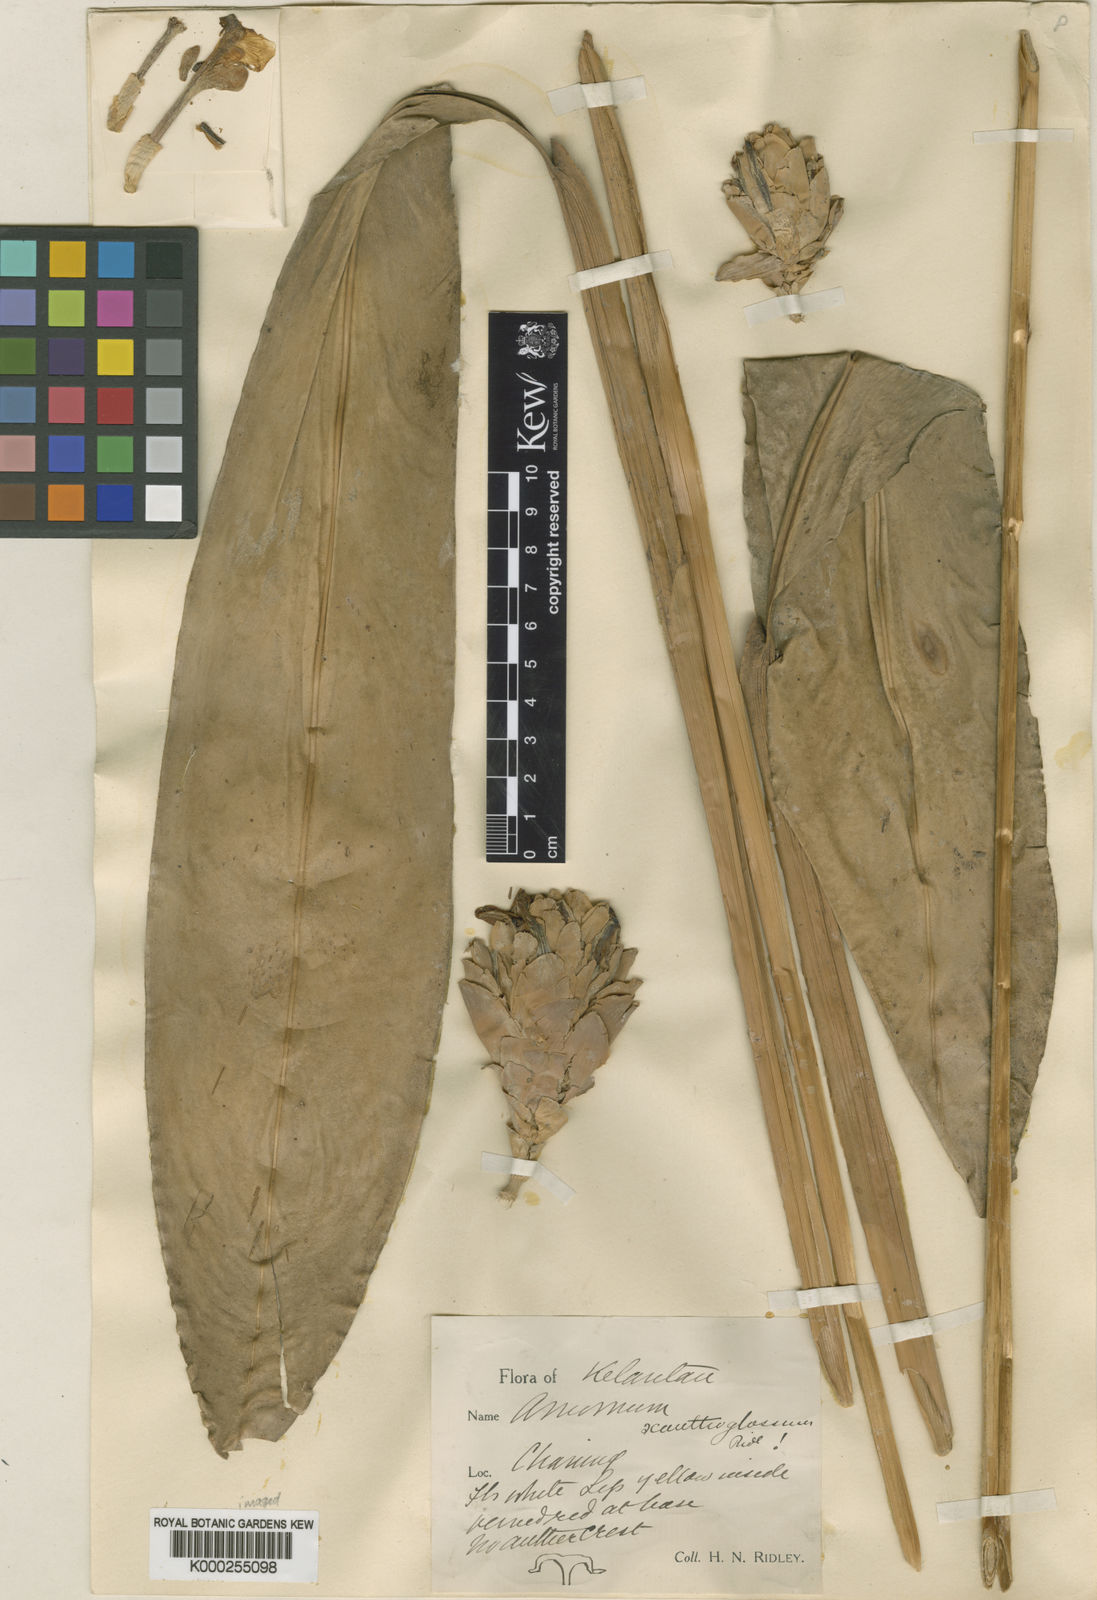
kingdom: Plantae
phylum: Tracheophyta
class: Liliopsida
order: Zingiberales
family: Zingiberaceae
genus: Sundamomum
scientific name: Sundamomum hastilabium
